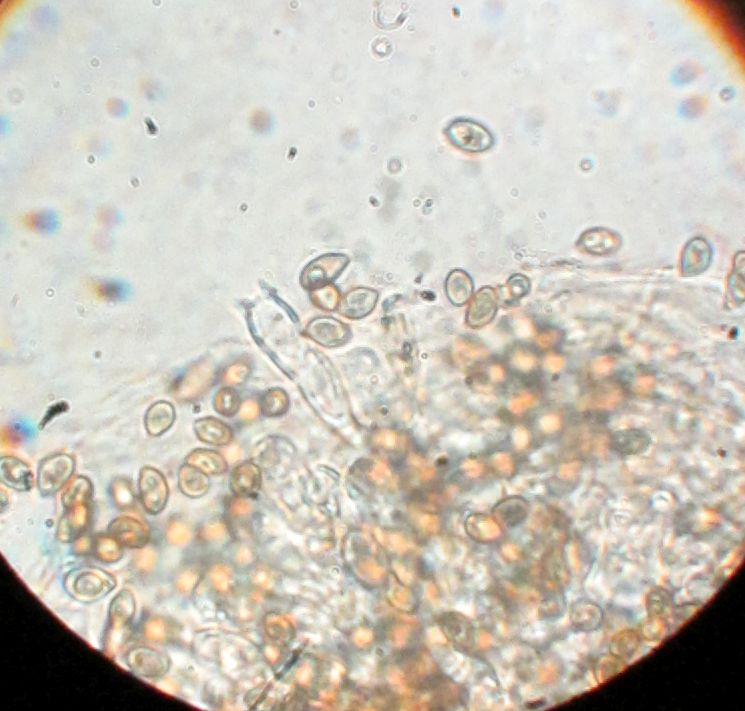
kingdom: Fungi
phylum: Basidiomycota
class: Agaricomycetes
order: Agaricales
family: Hymenogastraceae
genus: Hebeloma
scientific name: Hebeloma nigellum
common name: sortbrun tåreblad
